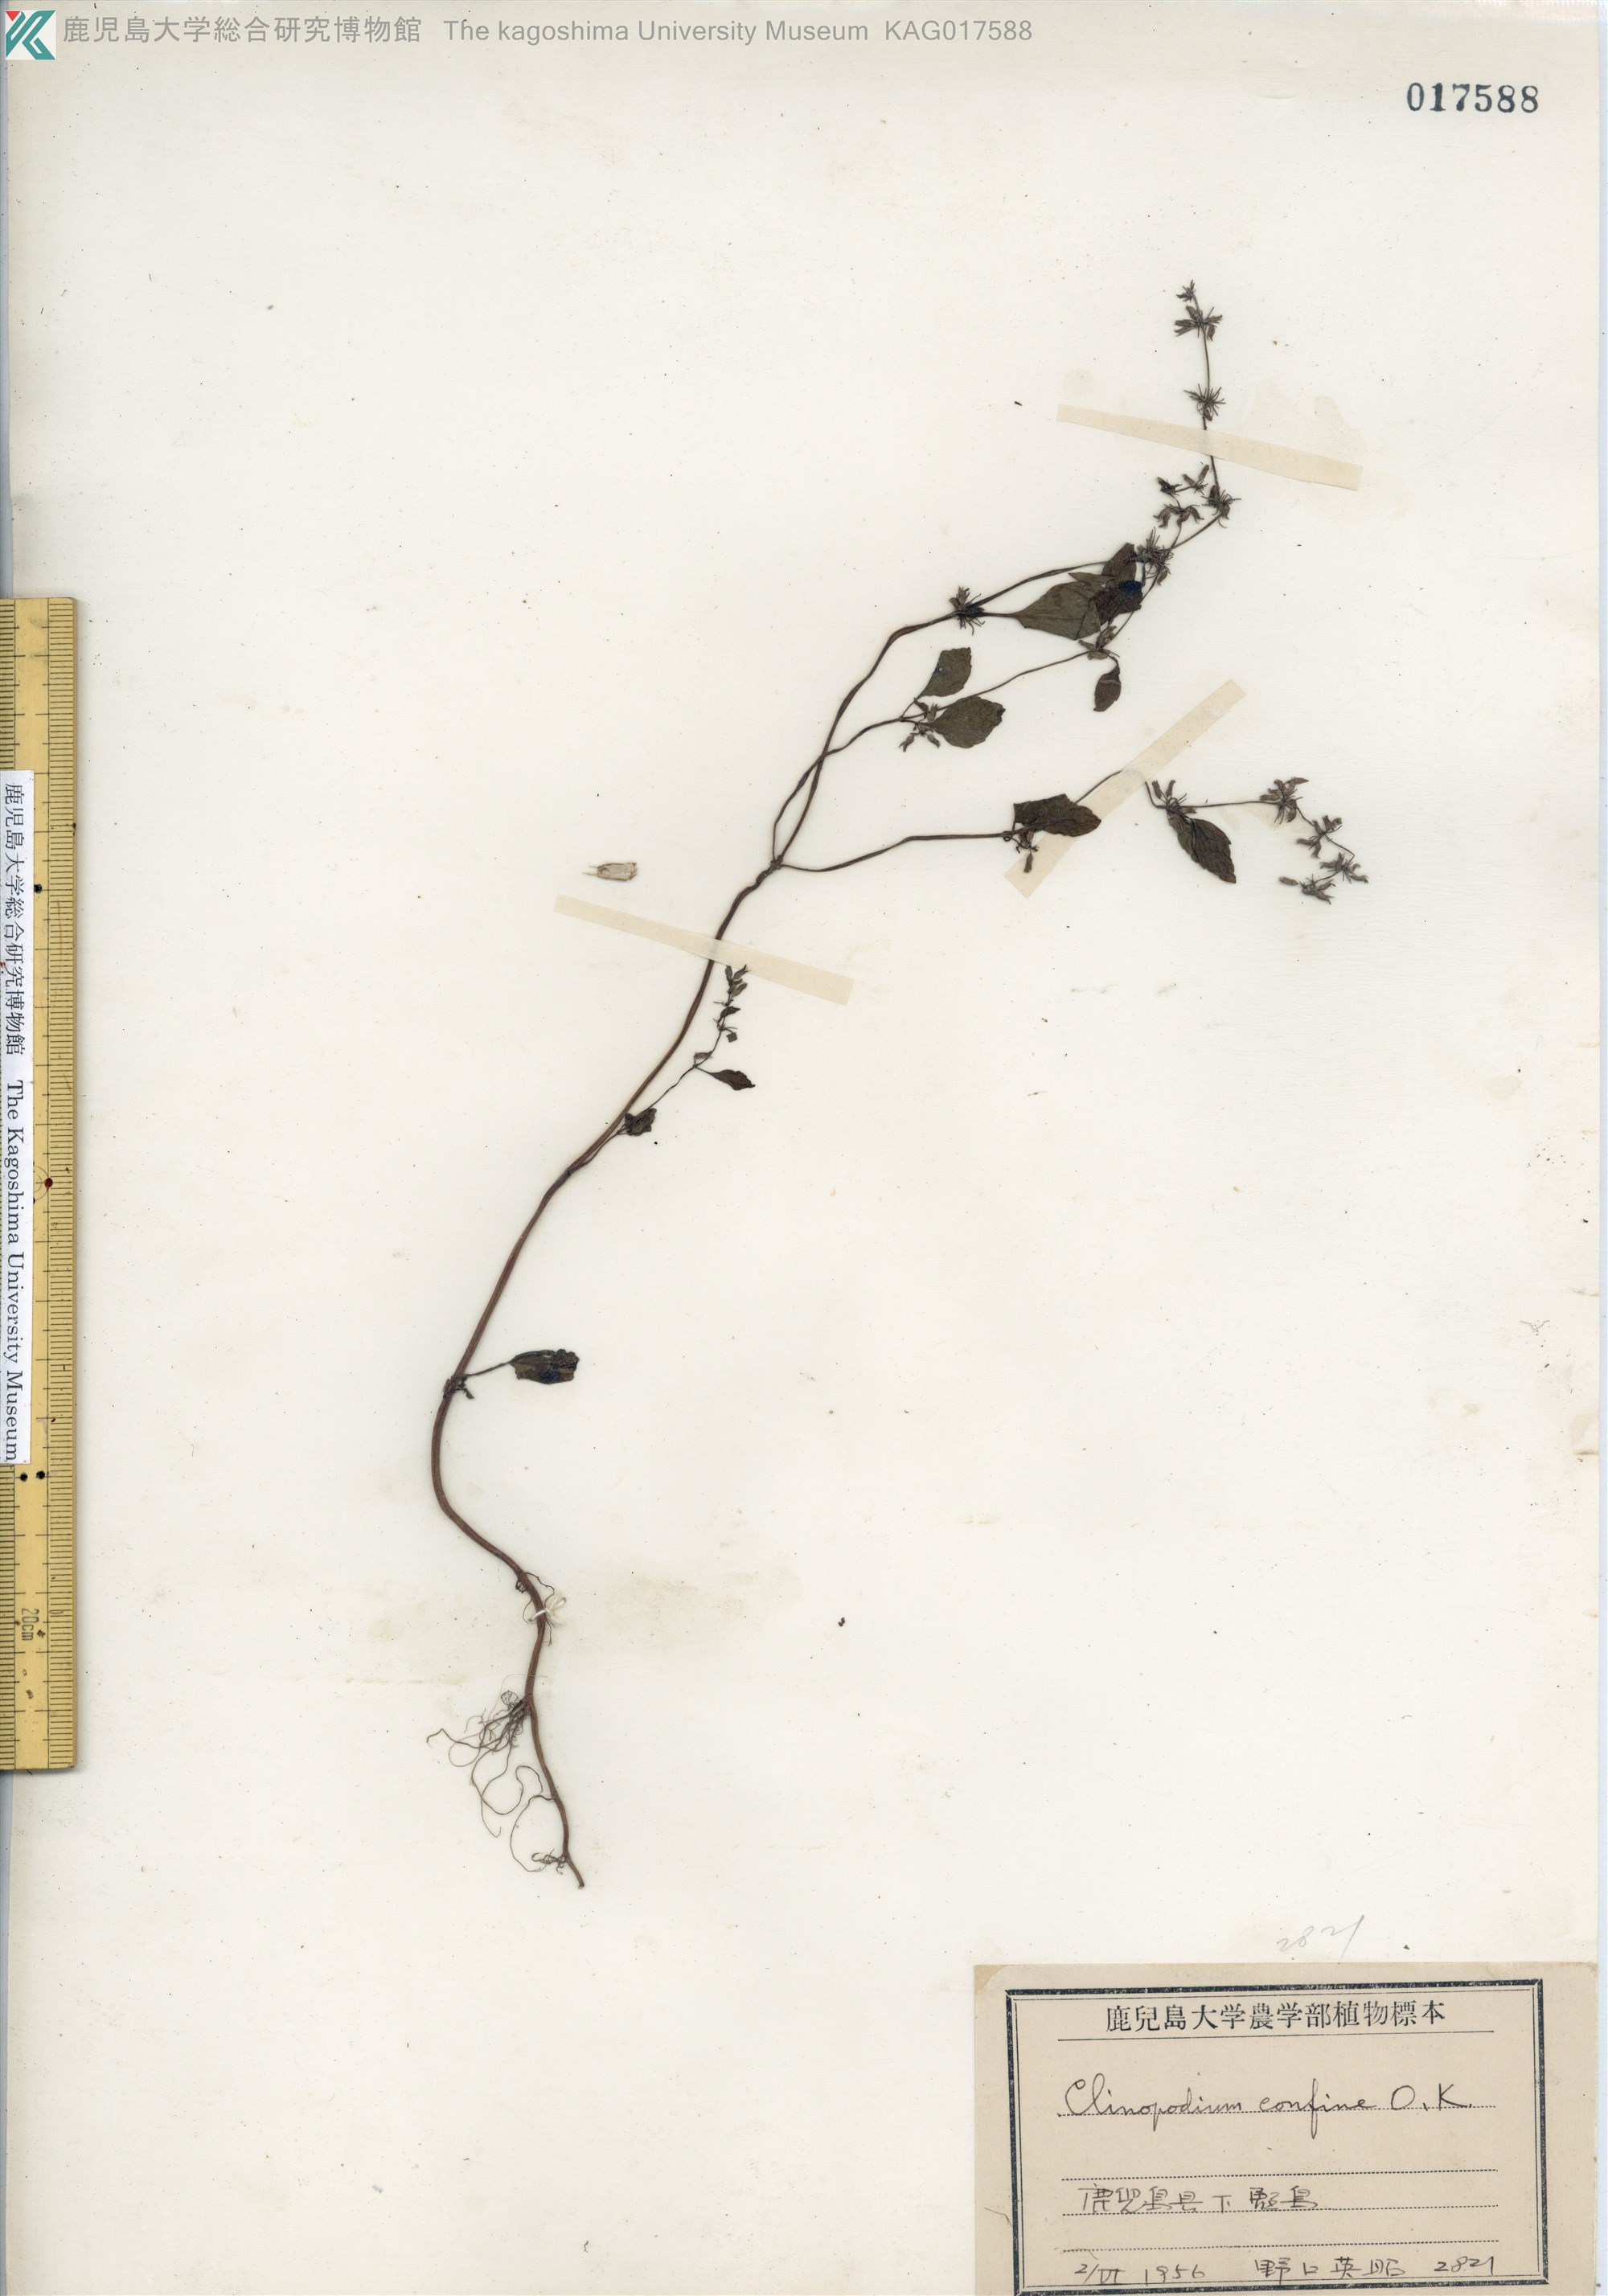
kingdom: Plantae
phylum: Tracheophyta
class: Magnoliopsida
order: Lamiales
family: Lamiaceae
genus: Clinopodium
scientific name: Clinopodium gracile
